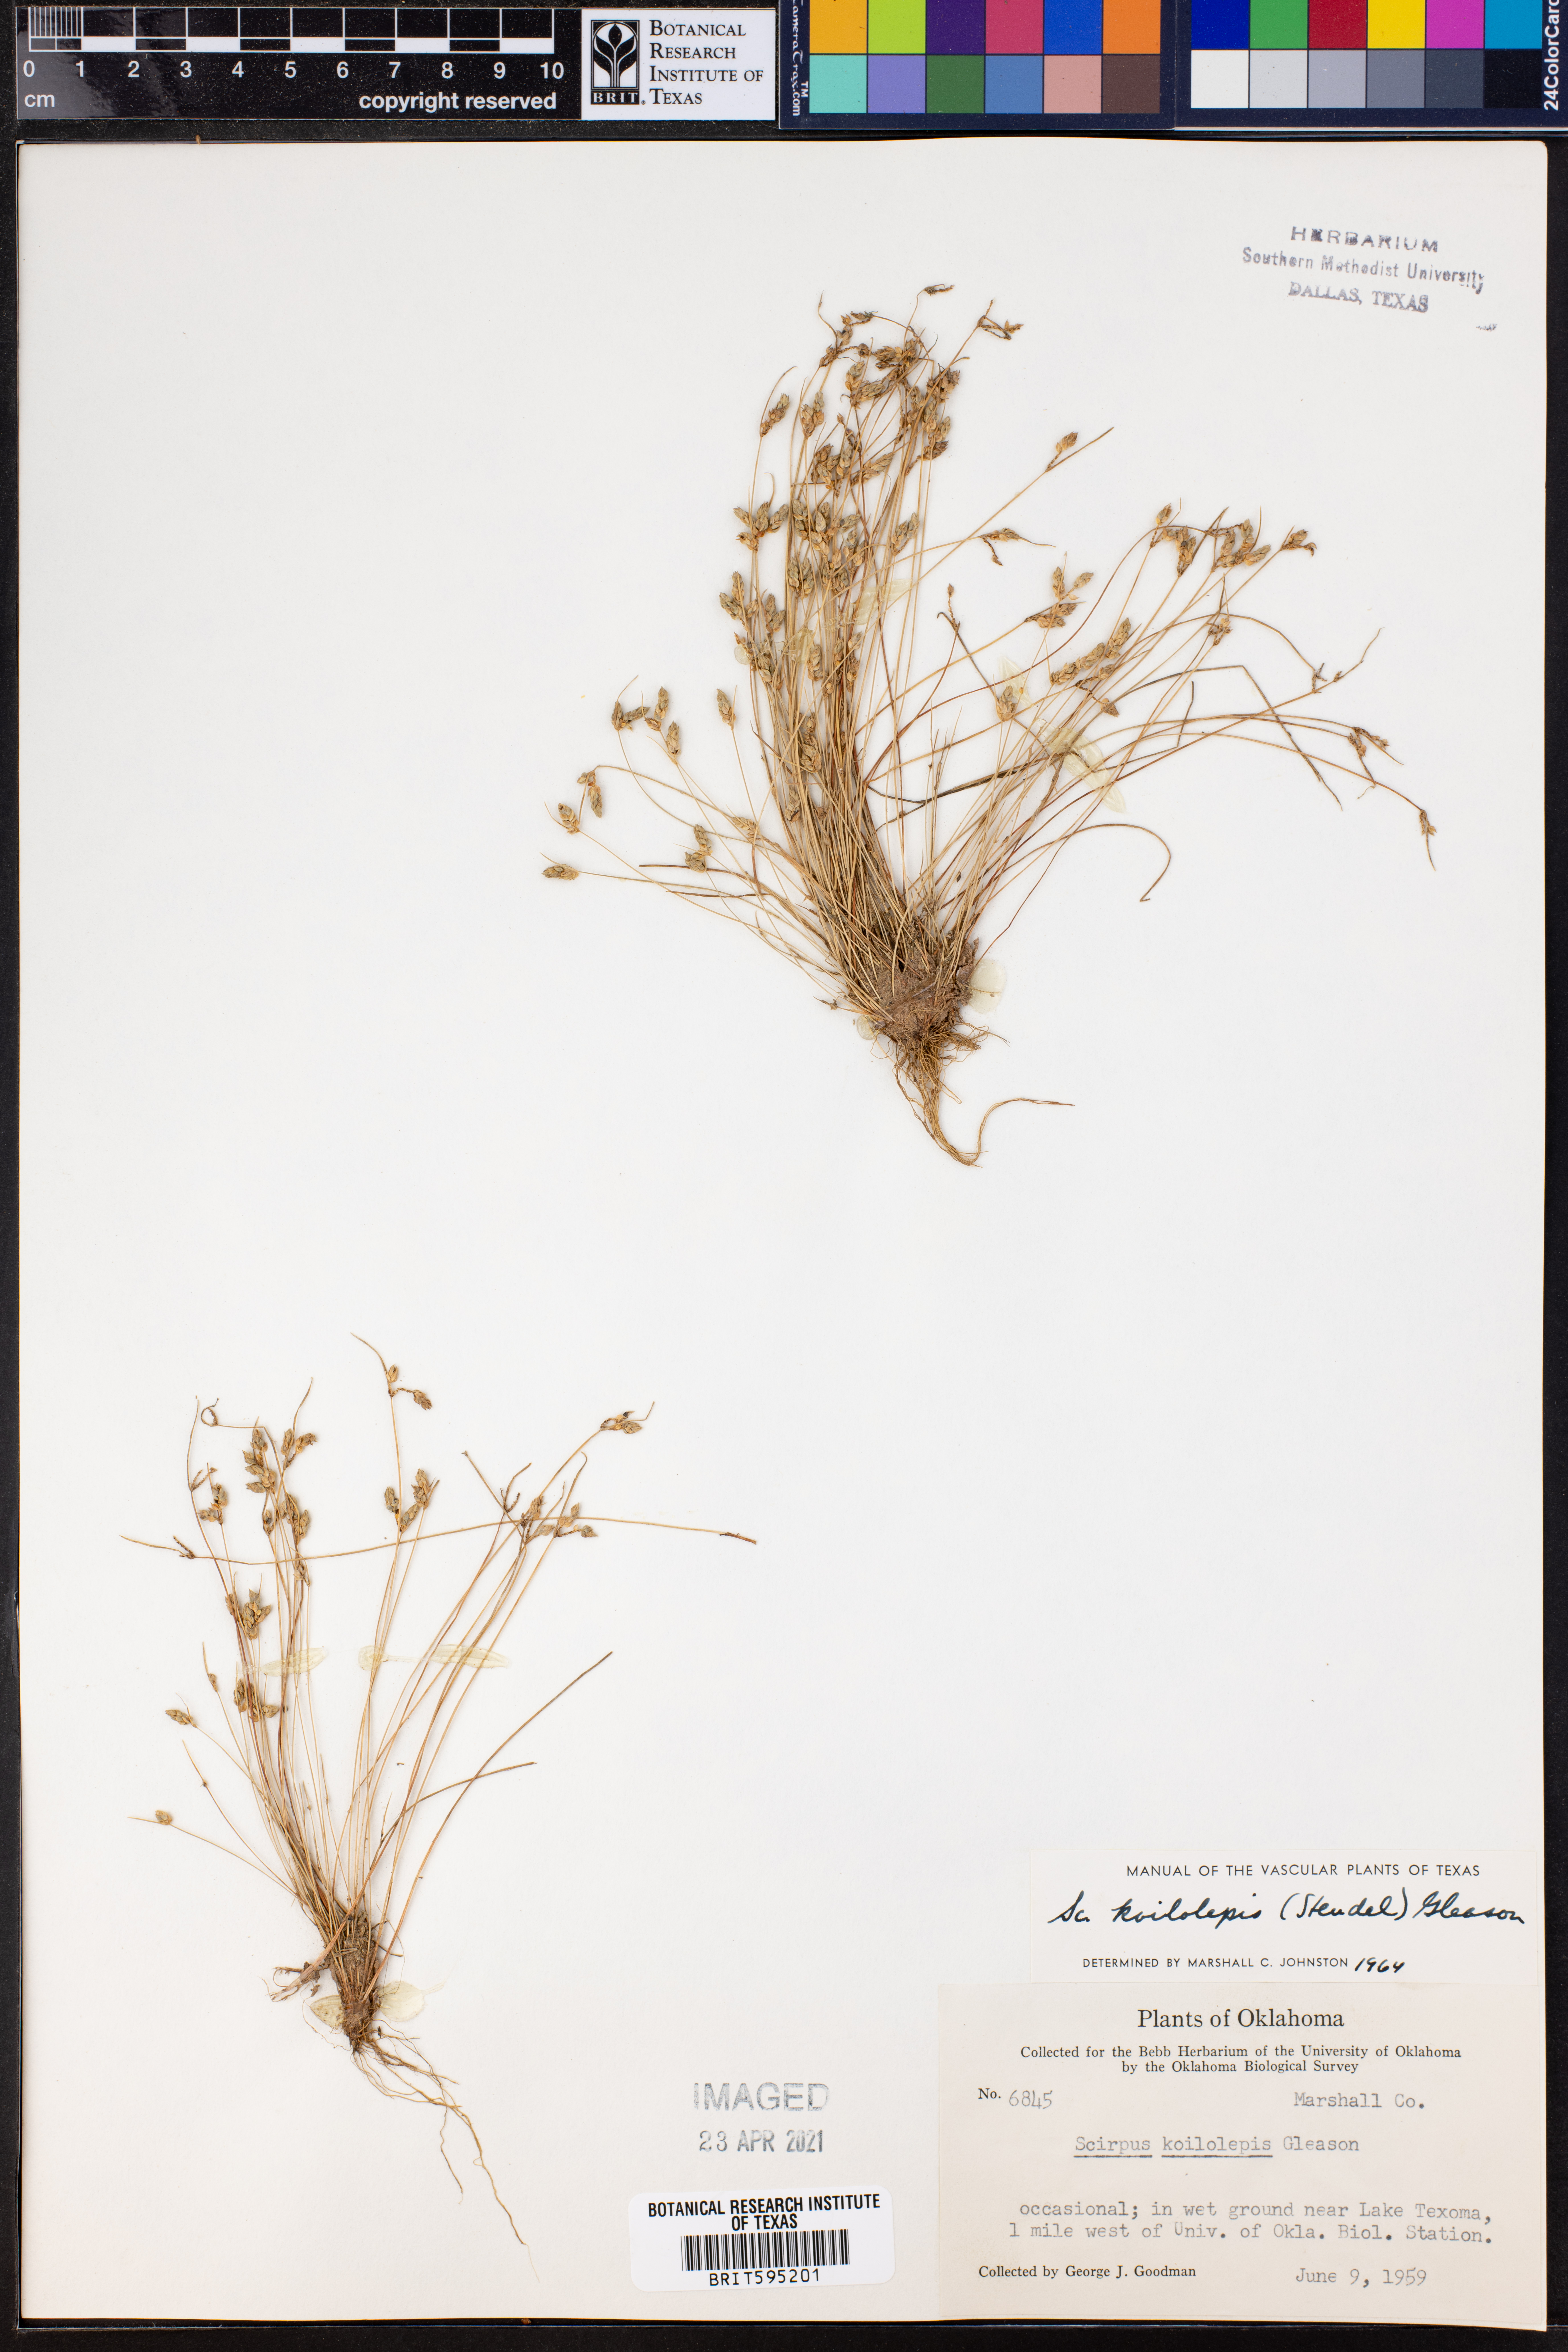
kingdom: Plantae
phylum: Tracheophyta
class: Liliopsida
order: Poales
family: Cyperaceae
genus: Isolepis
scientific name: Isolepis carinata
